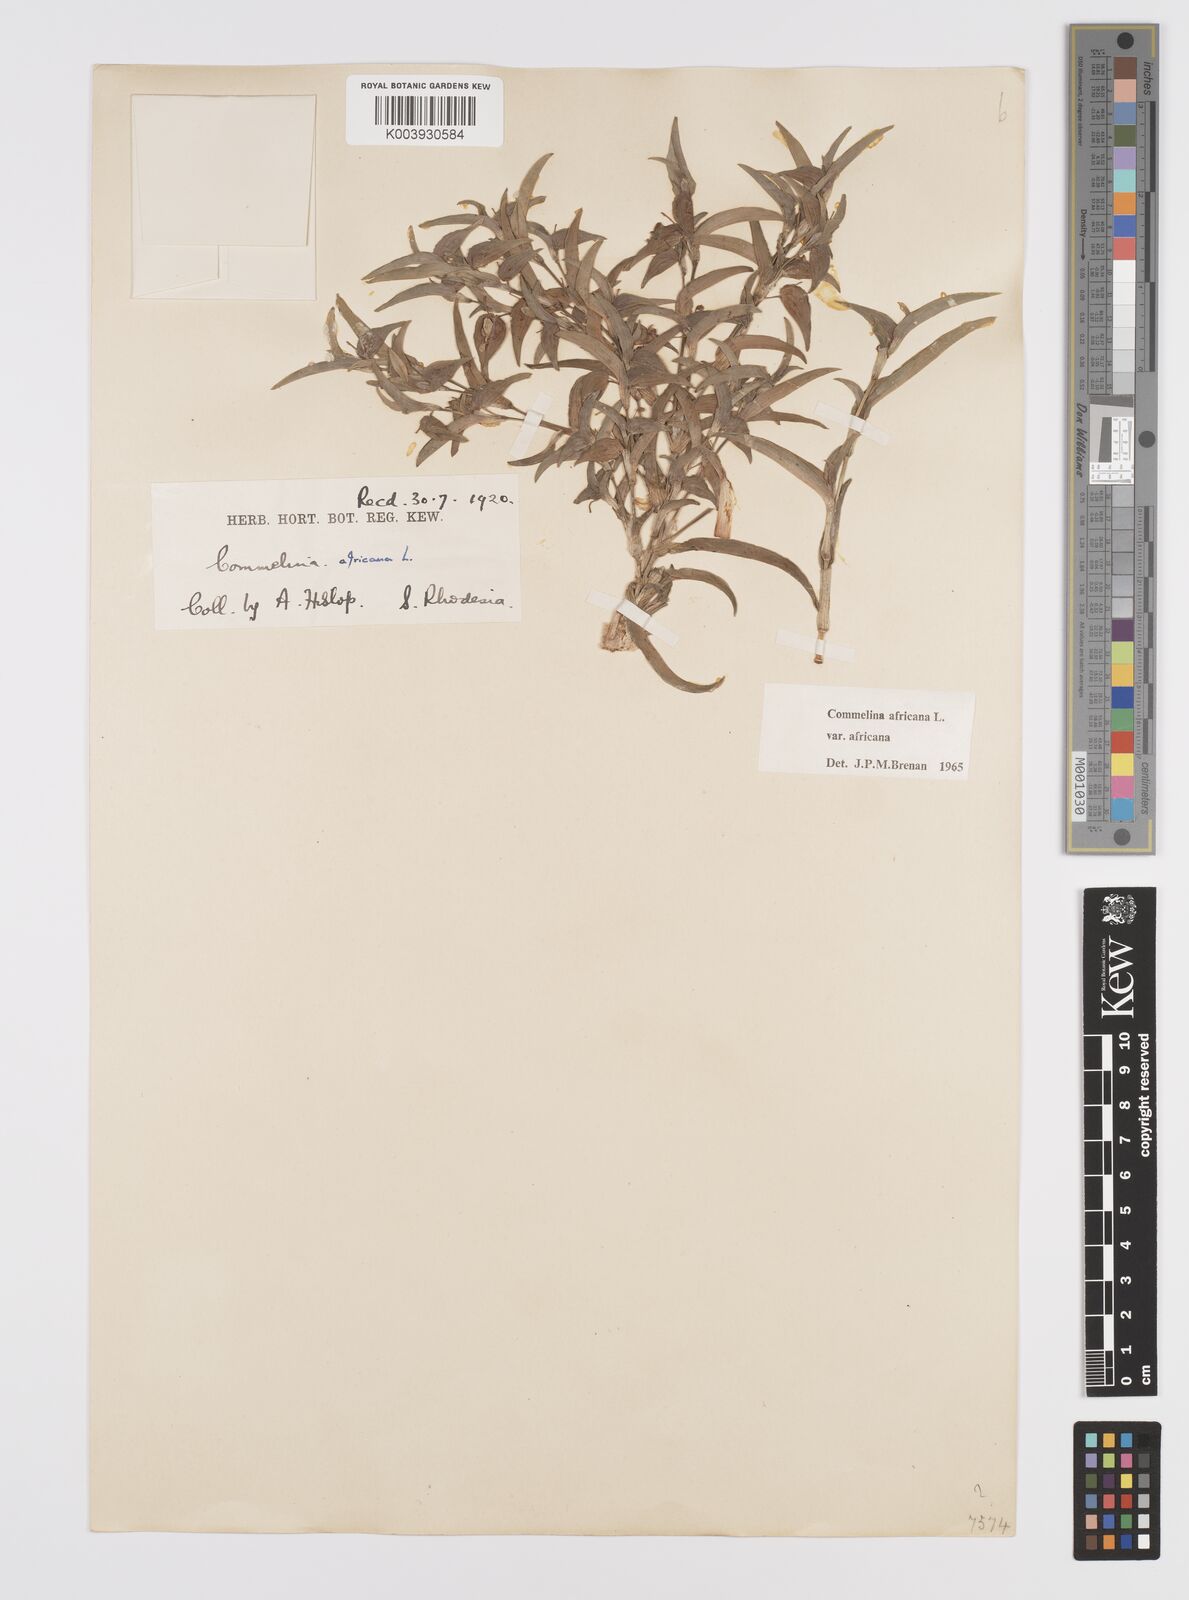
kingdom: Plantae
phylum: Tracheophyta
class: Liliopsida
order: Commelinales
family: Commelinaceae
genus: Commelina
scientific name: Commelina africana
